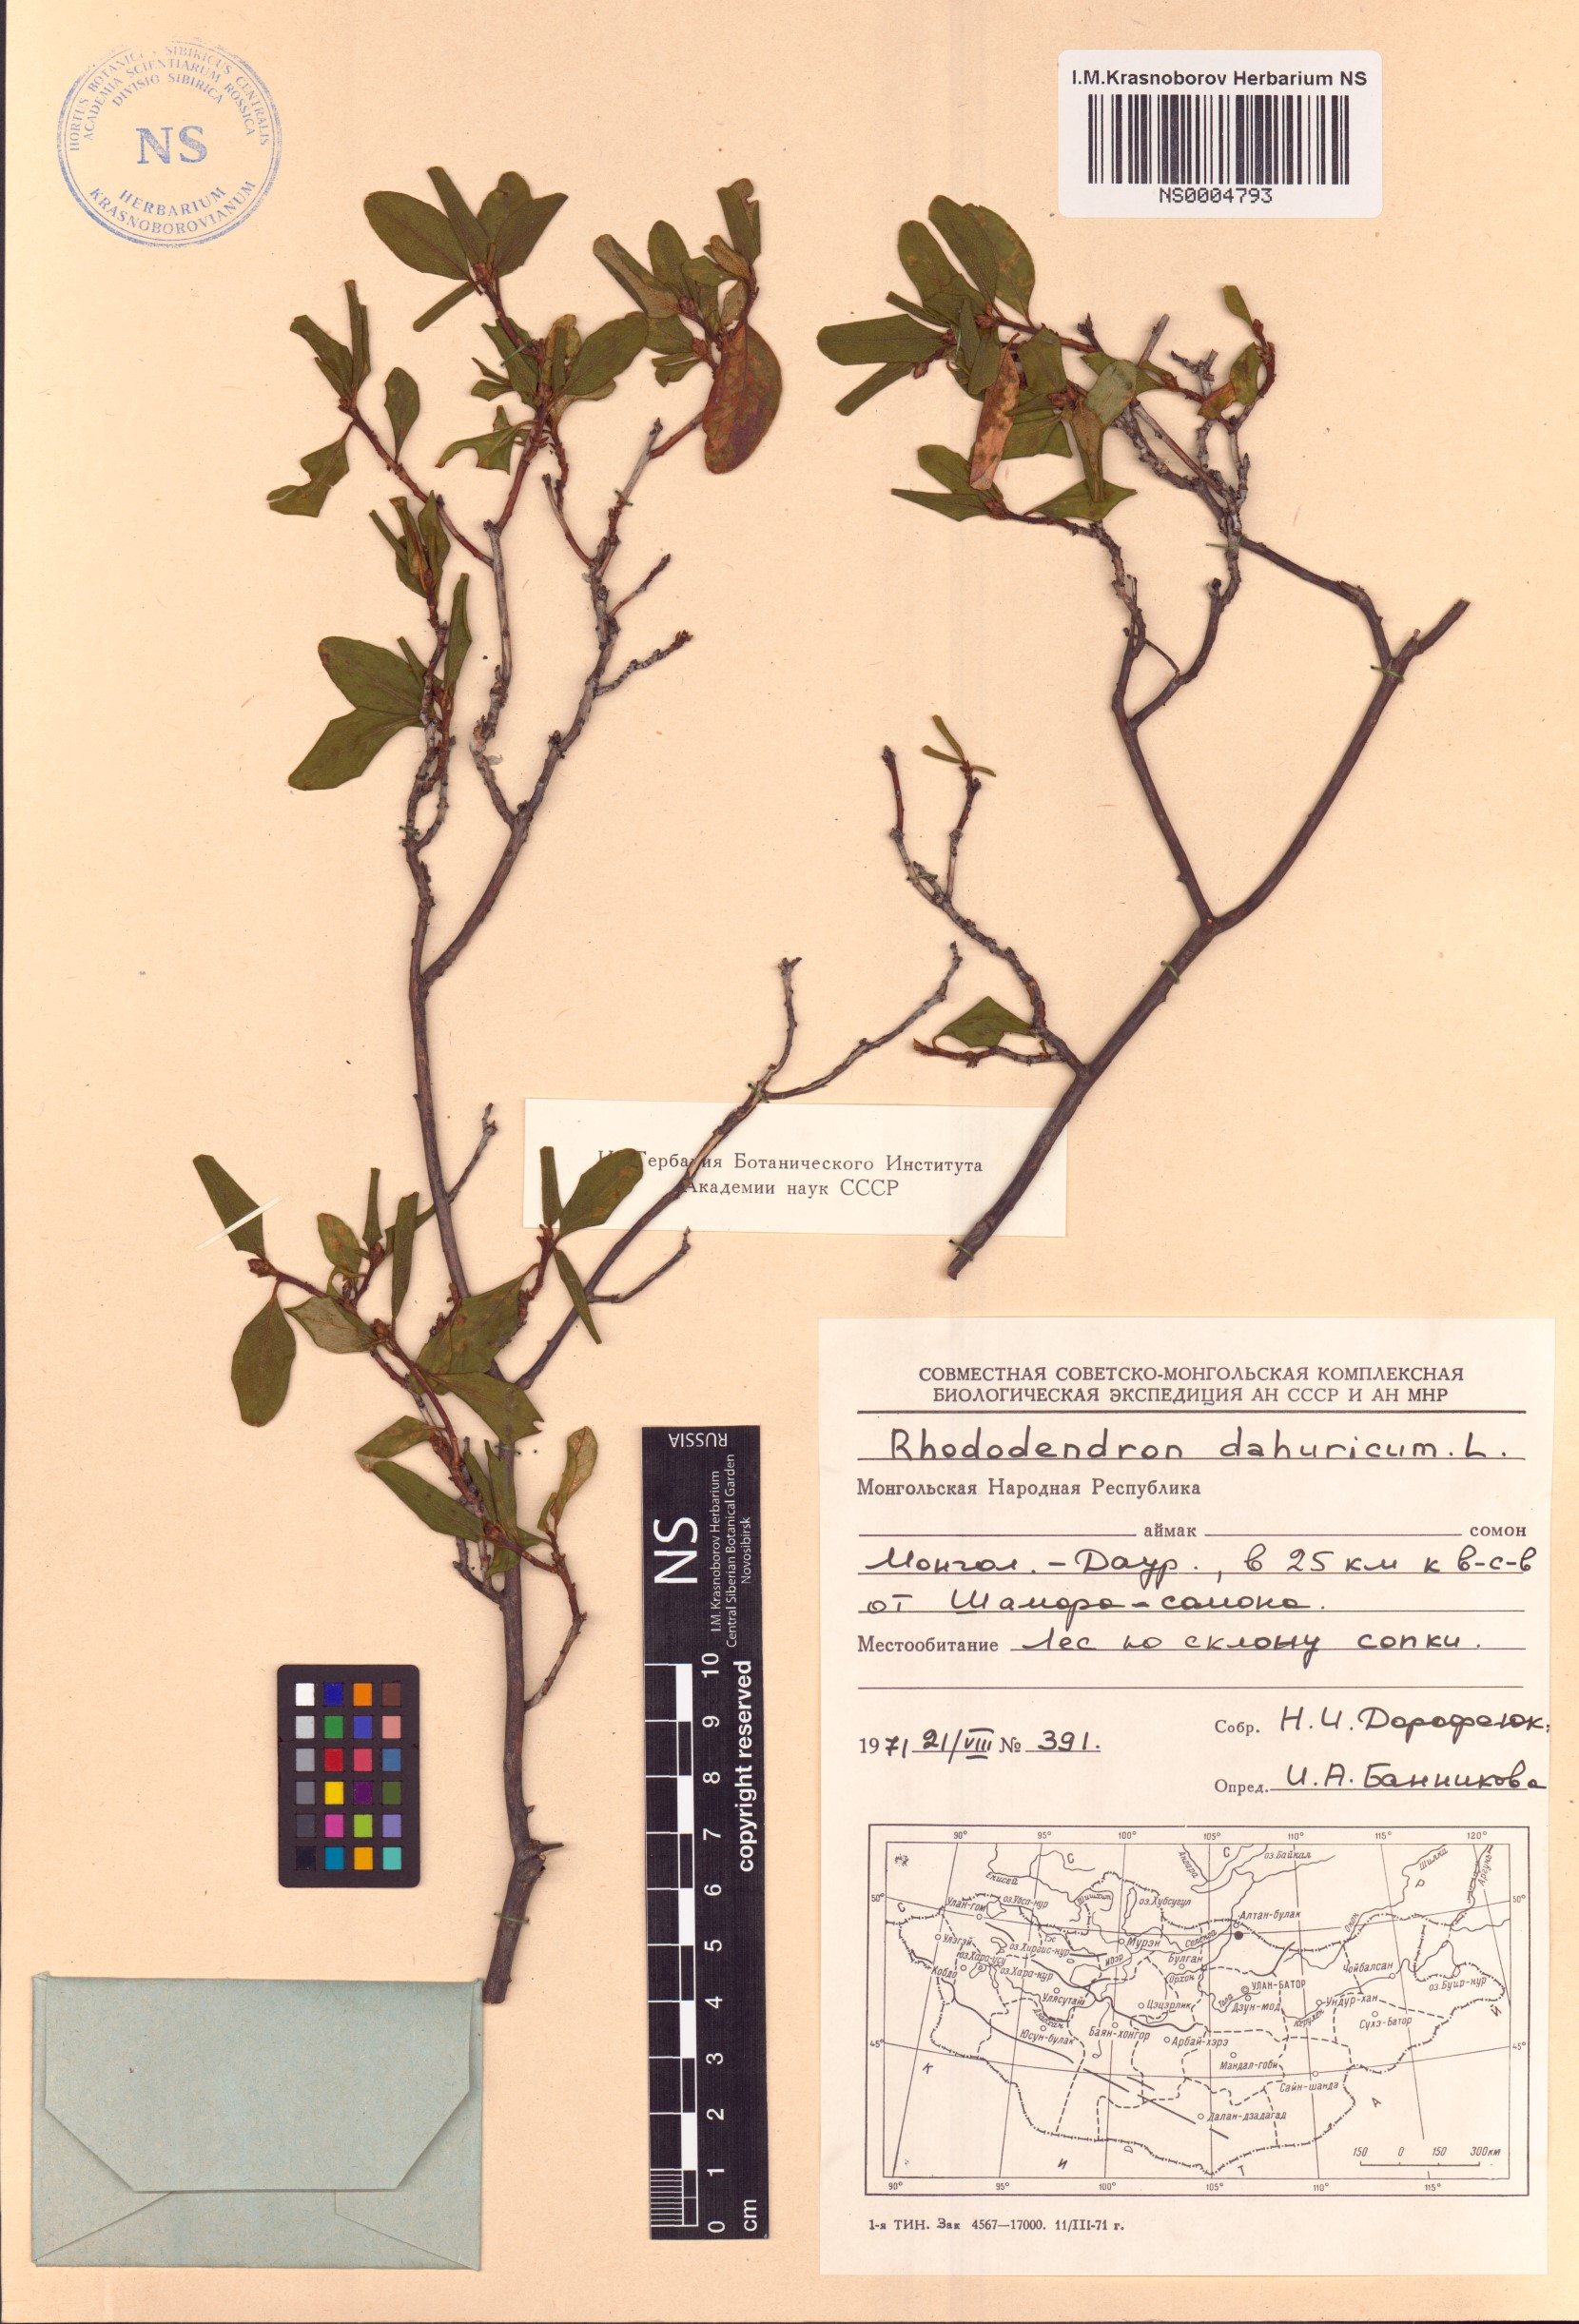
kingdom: Plantae
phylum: Tracheophyta
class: Magnoliopsida
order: Ericales
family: Ericaceae
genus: Rhododendron
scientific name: Rhododendron dauricum
